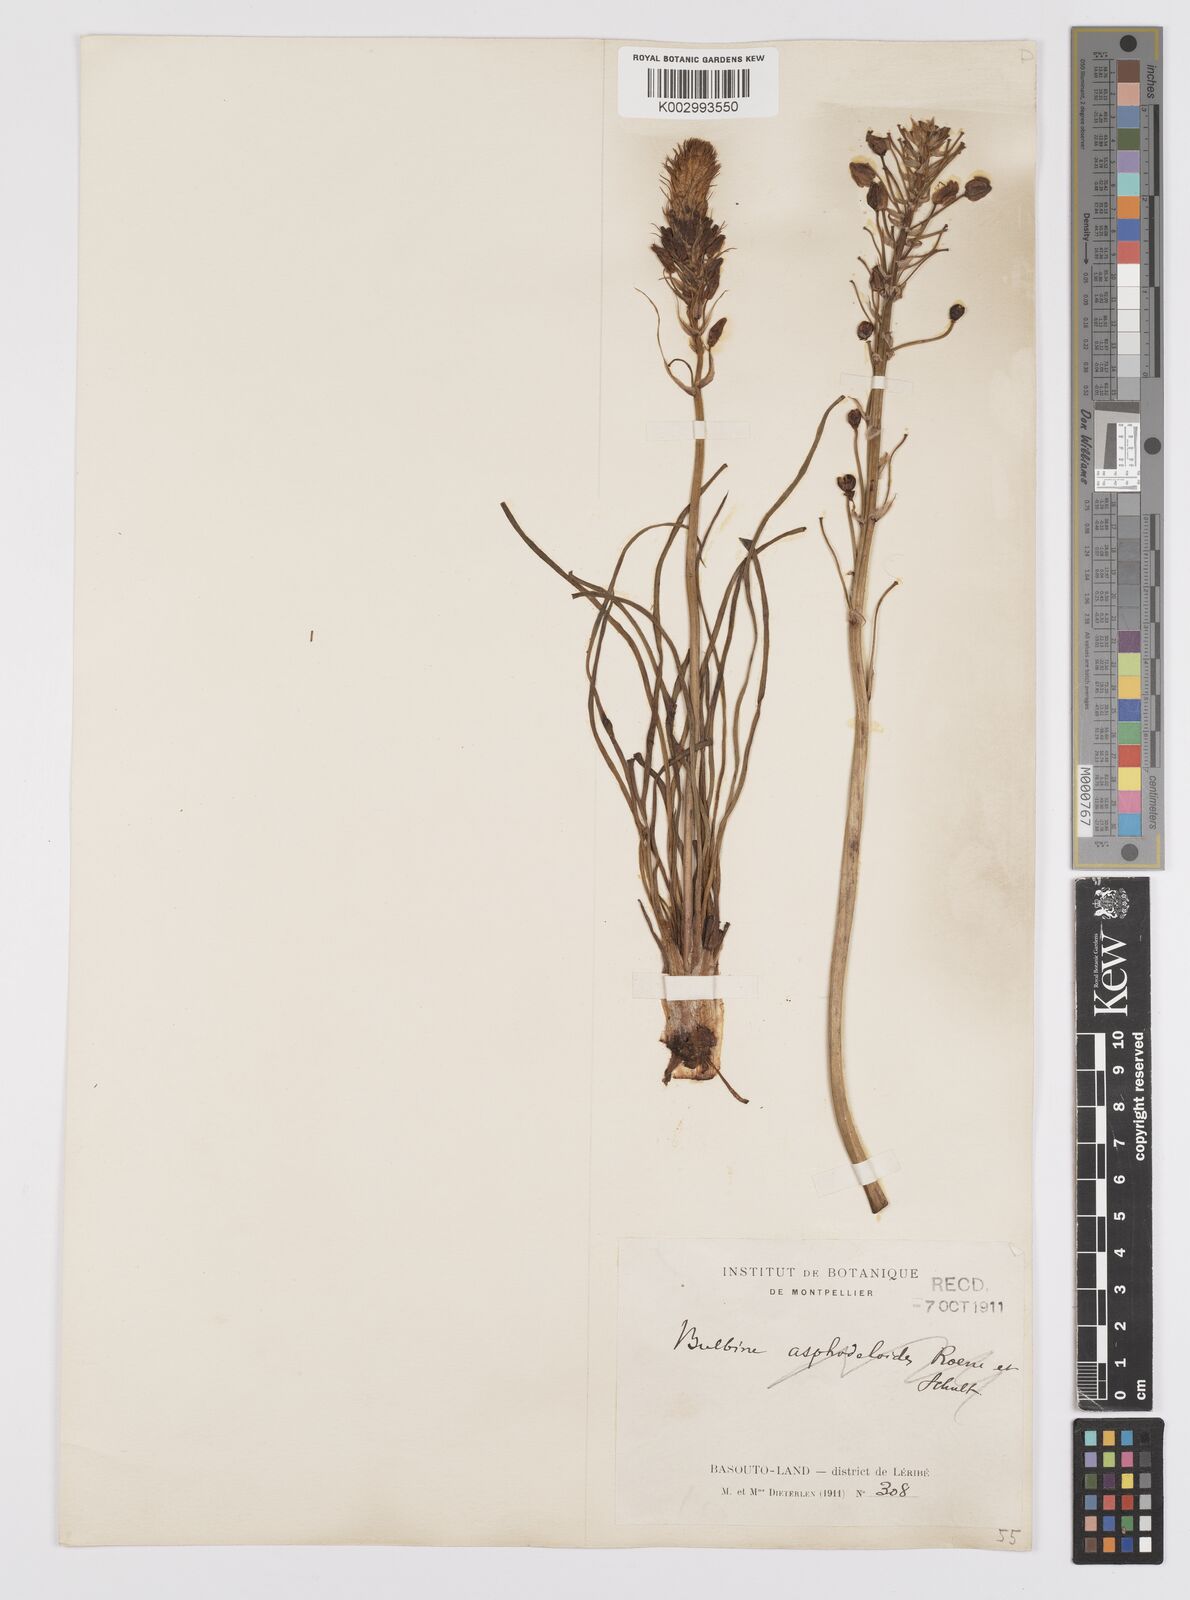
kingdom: Plantae
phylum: Tracheophyta
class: Liliopsida
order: Asparagales
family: Asphodelaceae
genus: Bulbine
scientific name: Bulbine abyssinica
